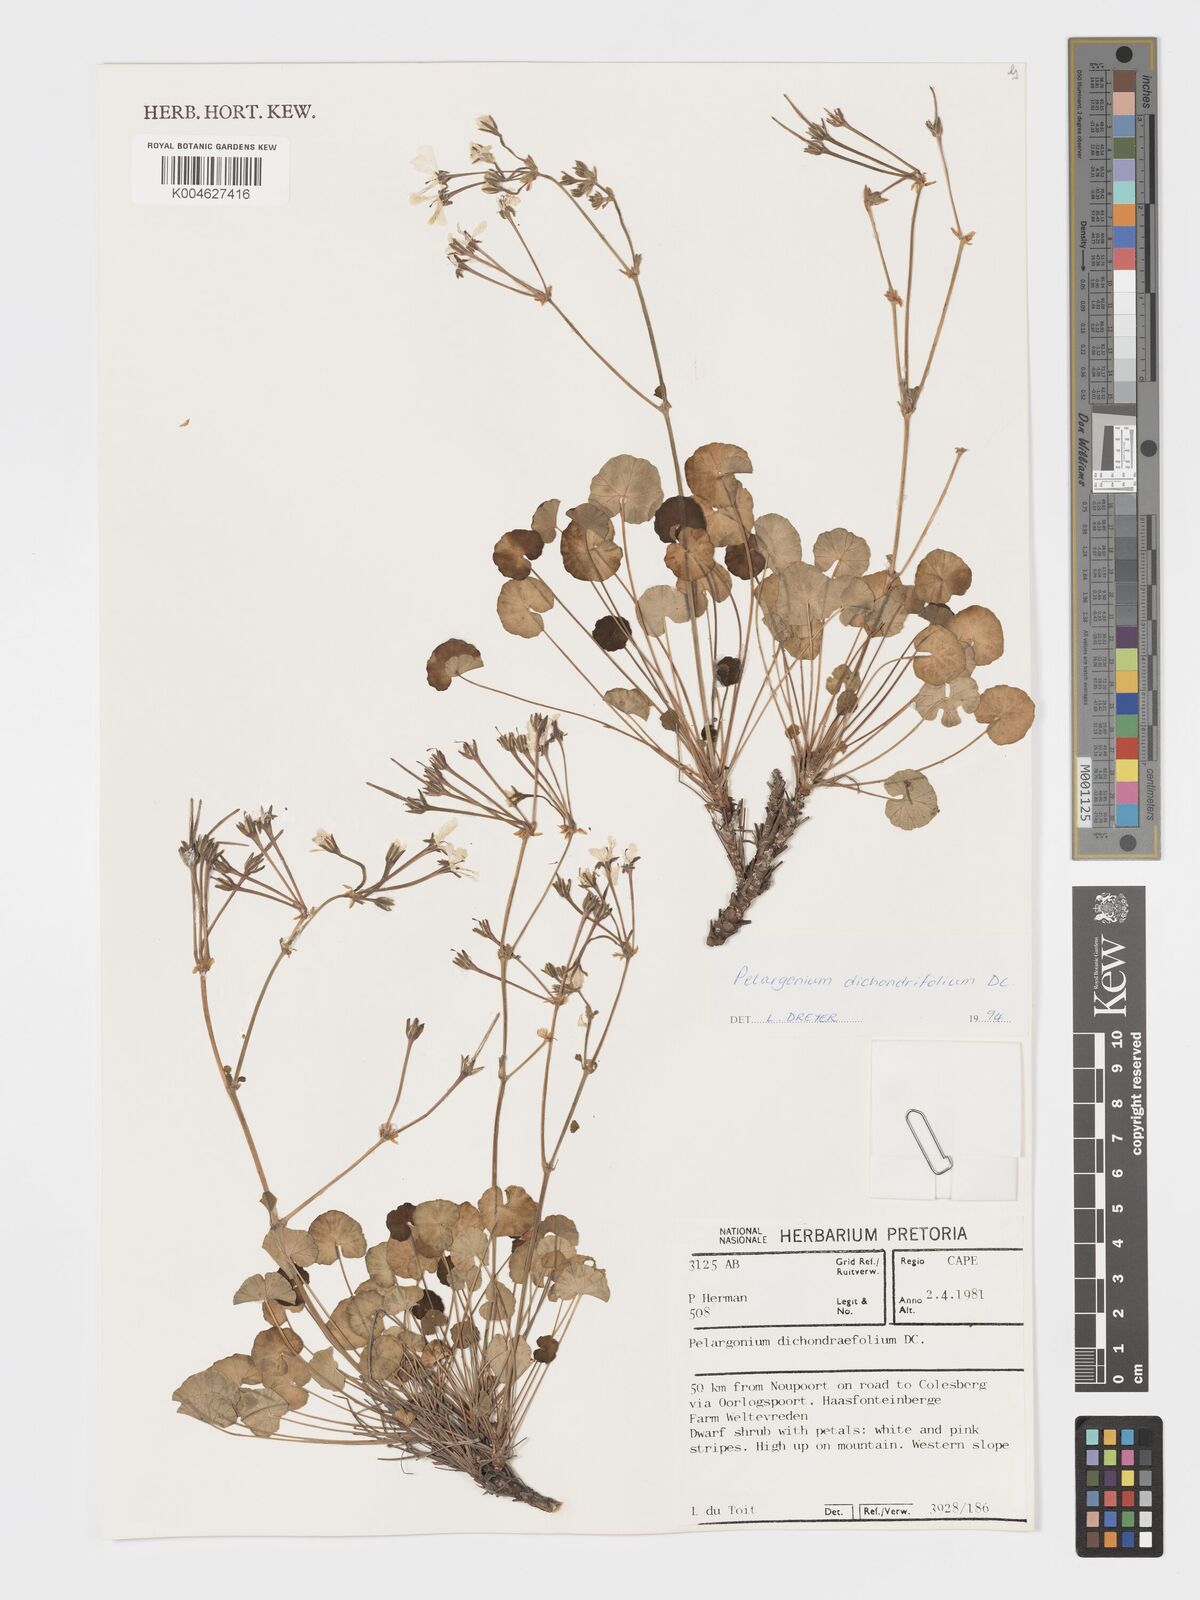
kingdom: Plantae
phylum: Tracheophyta
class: Magnoliopsida
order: Geraniales
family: Geraniaceae
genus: Pelargonium
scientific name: Pelargonium dichondrifolium
